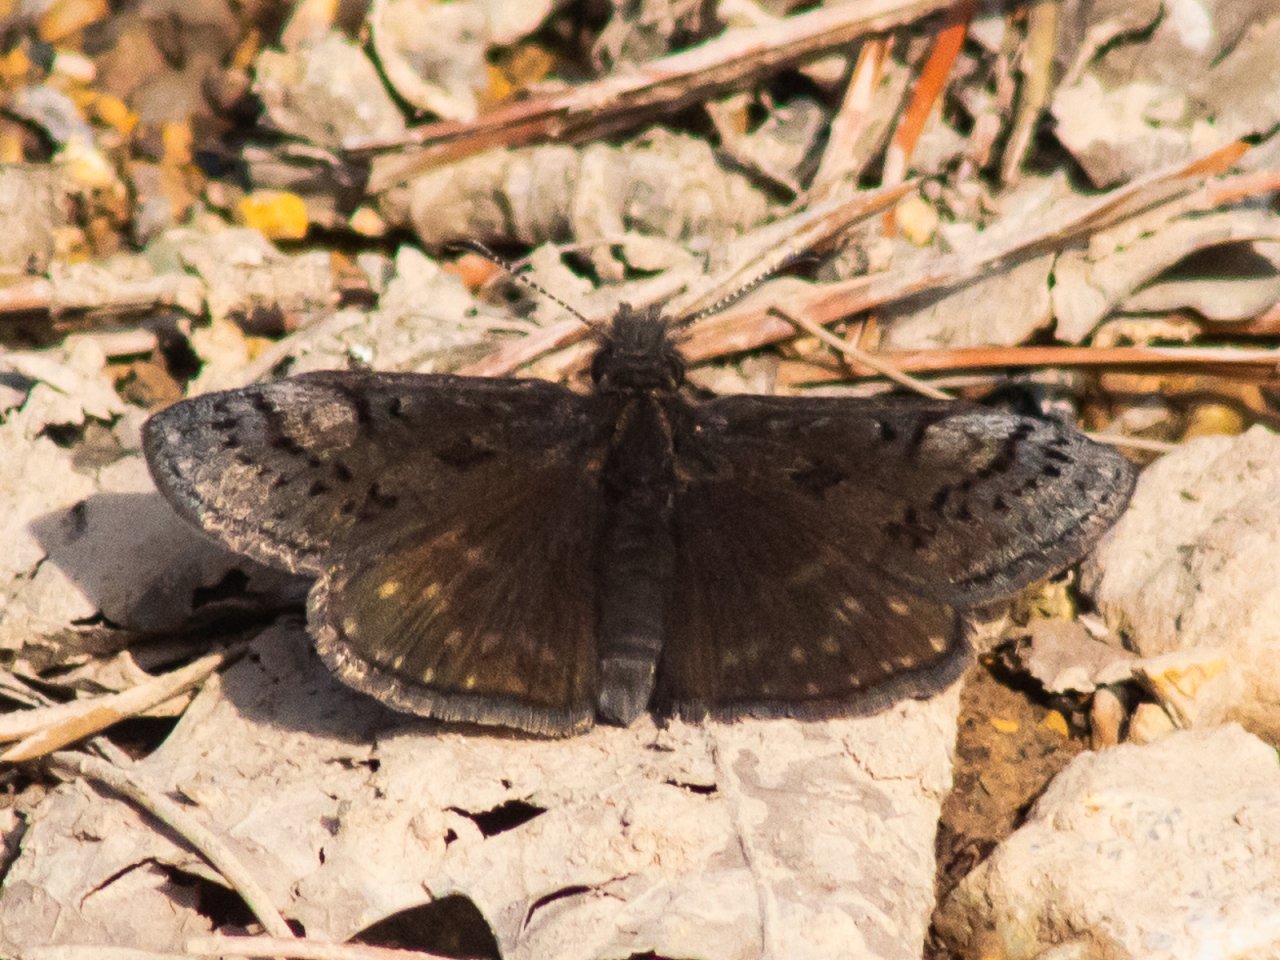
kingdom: Animalia
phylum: Arthropoda
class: Insecta
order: Lepidoptera
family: Hesperiidae
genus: Erynnis
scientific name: Erynnis brizo
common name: Sleepy Duskywing
